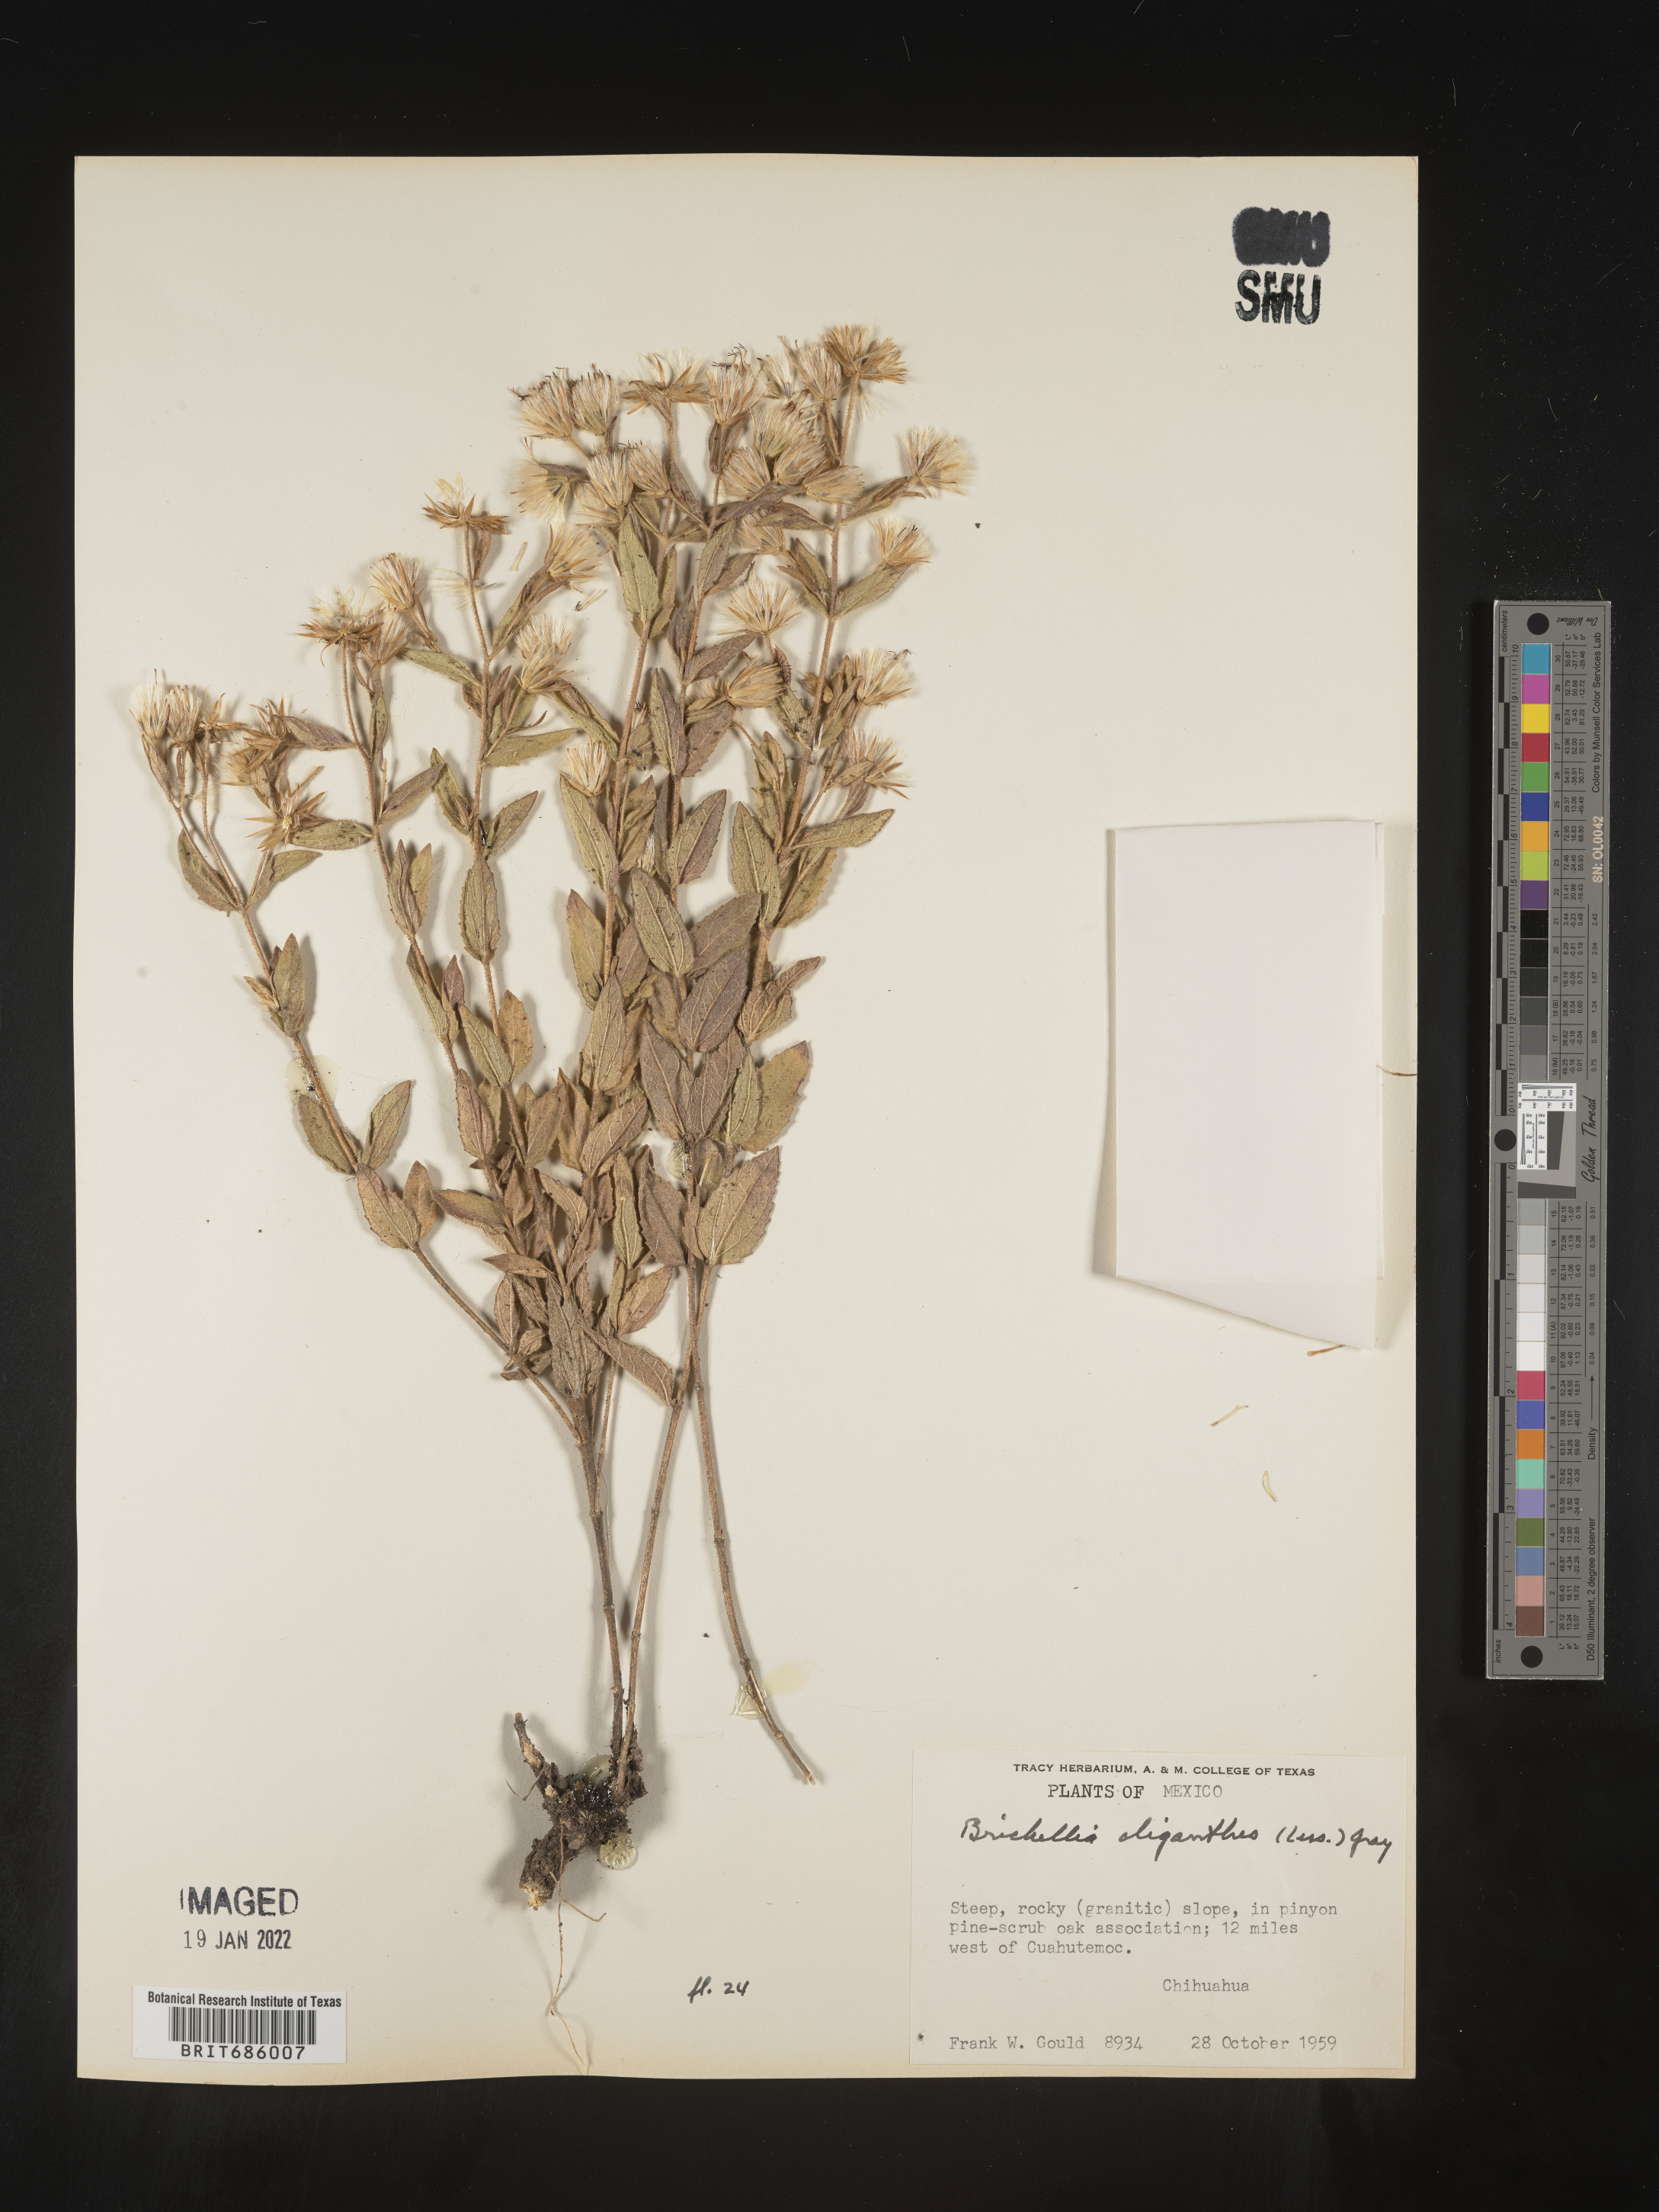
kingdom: Plantae
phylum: Tracheophyta
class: Magnoliopsida
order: Asterales
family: Asteraceae
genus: Brickellia
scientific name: Brickellia
